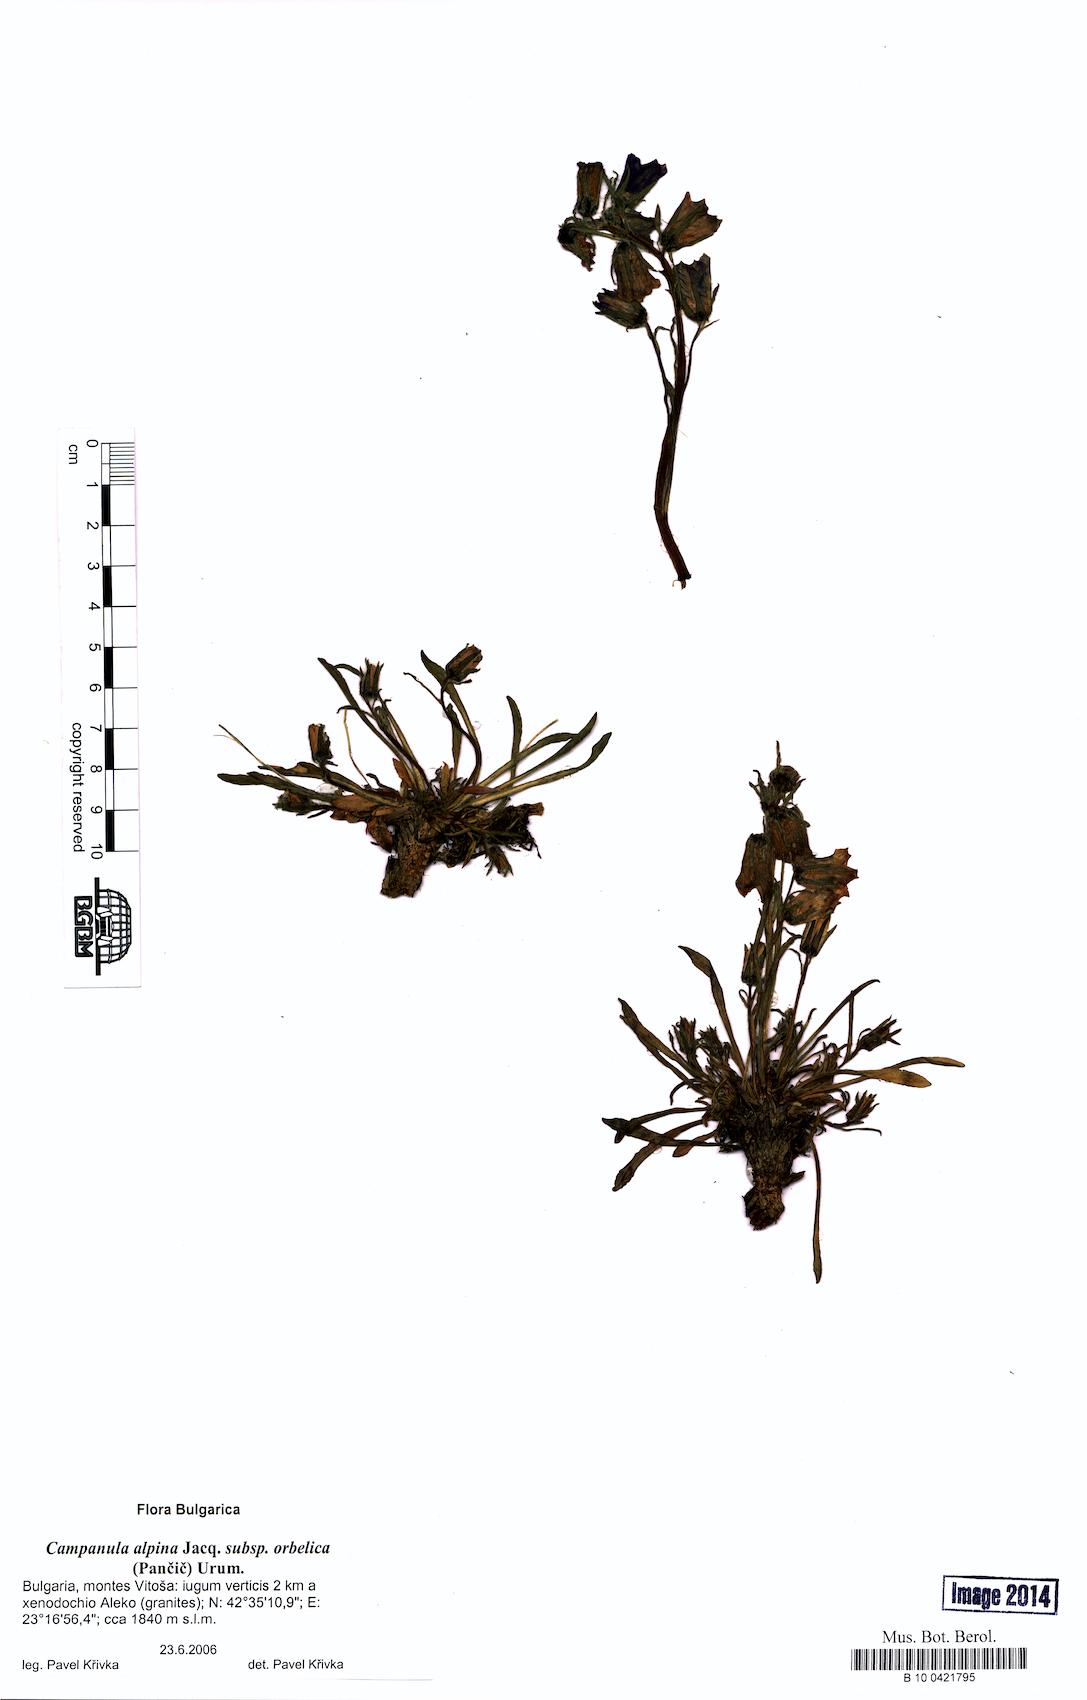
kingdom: Plantae
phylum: Tracheophyta
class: Magnoliopsida
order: Asterales
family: Campanulaceae
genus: Campanula
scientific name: Campanula orbelica
